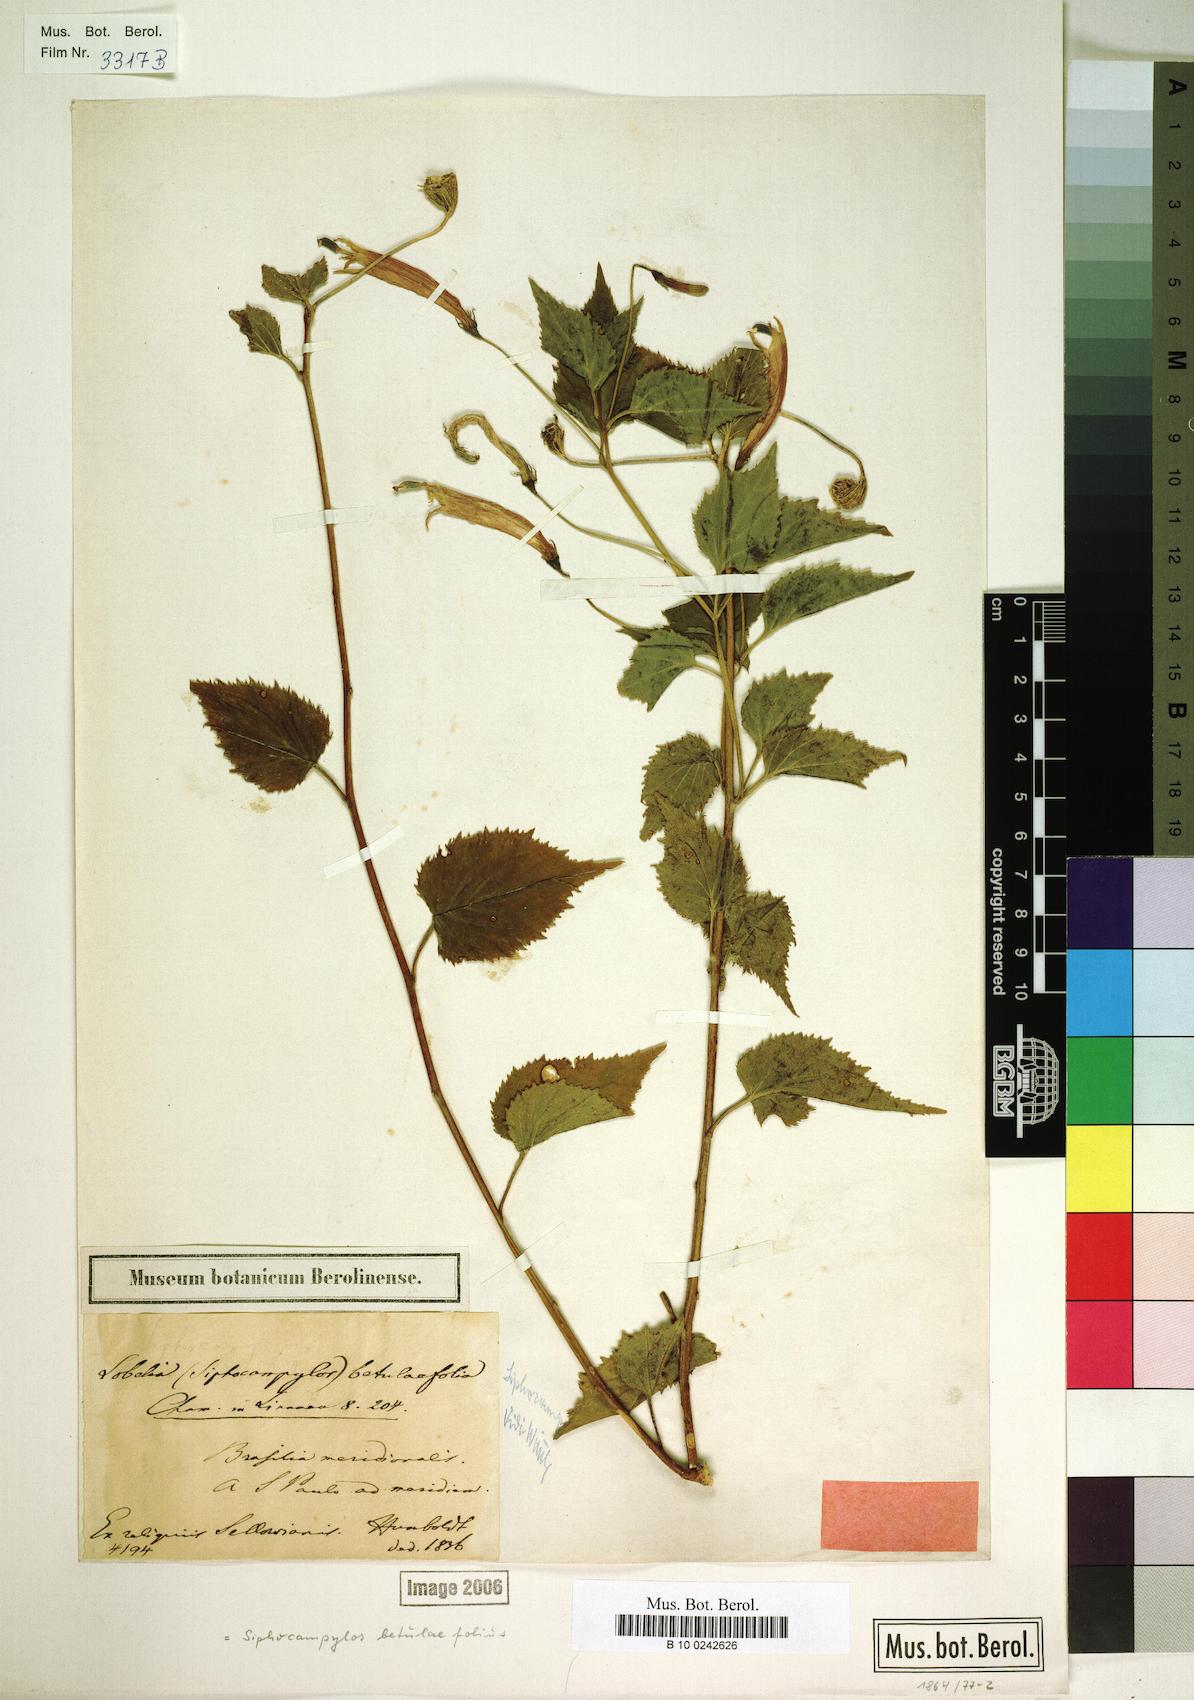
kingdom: Plantae
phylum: Tracheophyta
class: Magnoliopsida
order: Asterales
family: Campanulaceae
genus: Siphocampylus
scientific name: Siphocampylus betulifolius
